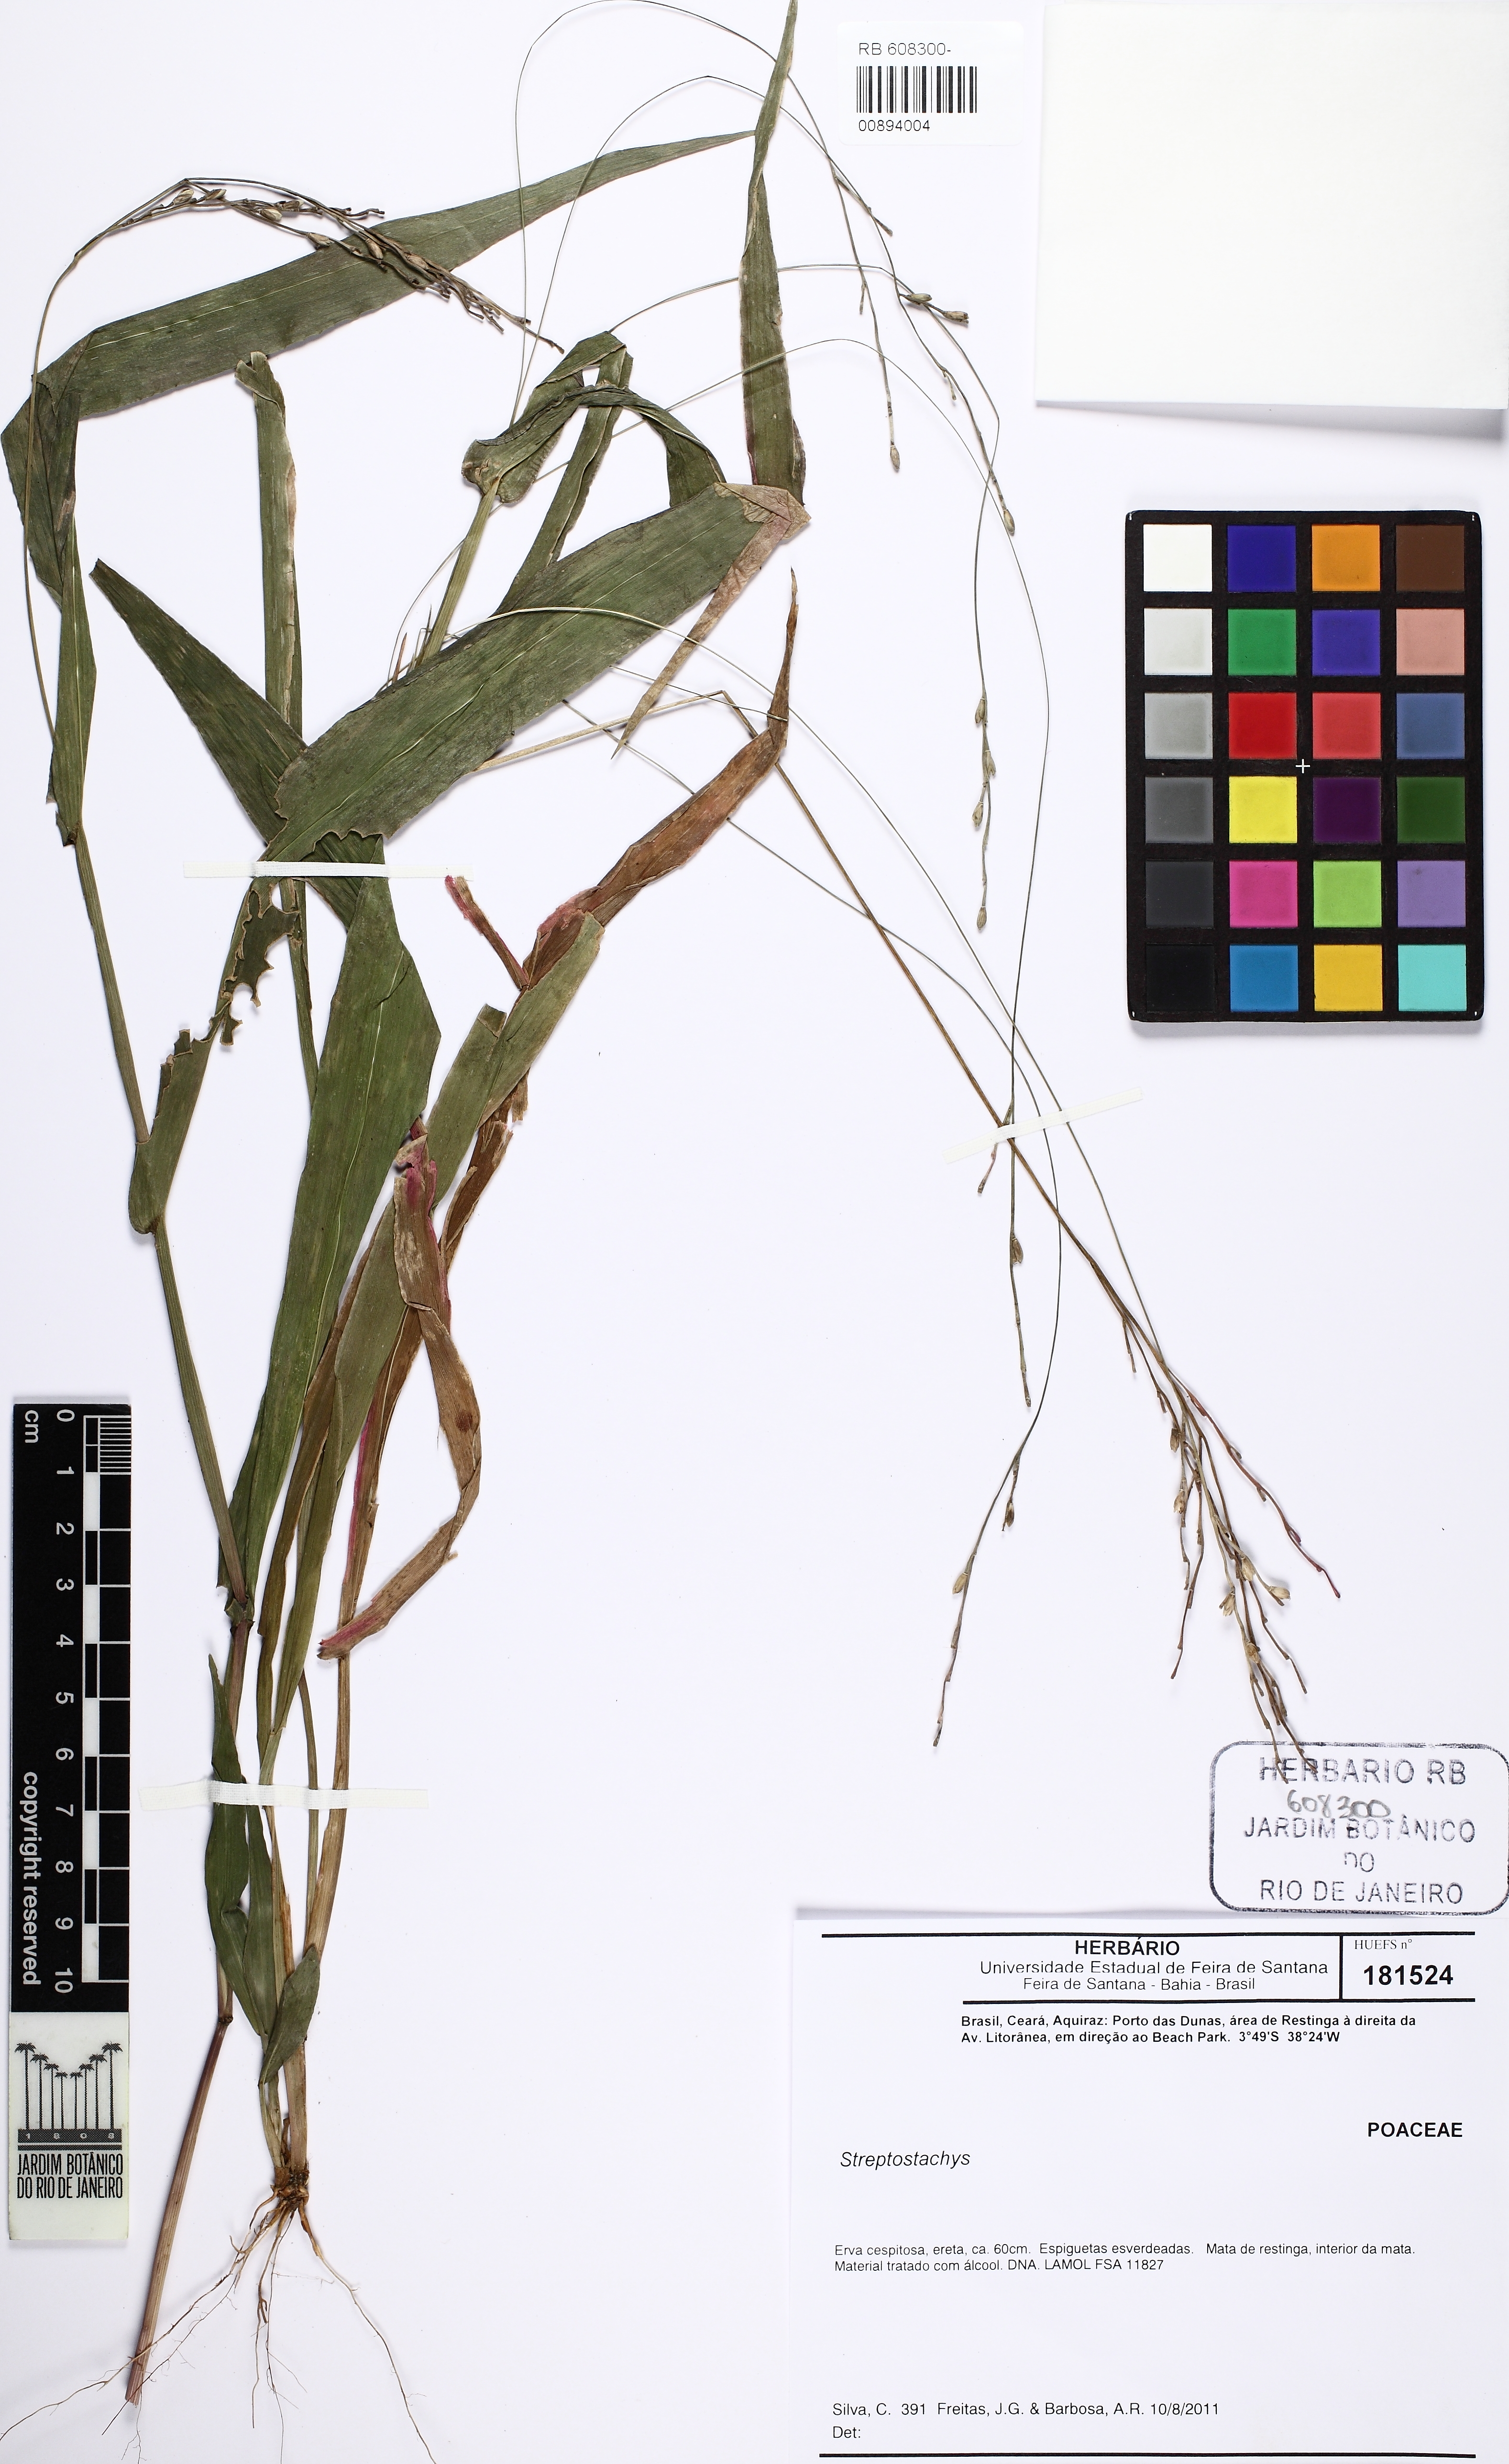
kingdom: Plantae
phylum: Tracheophyta
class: Liliopsida
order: Poales
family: Poaceae
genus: Streptostachys
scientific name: Streptostachys
